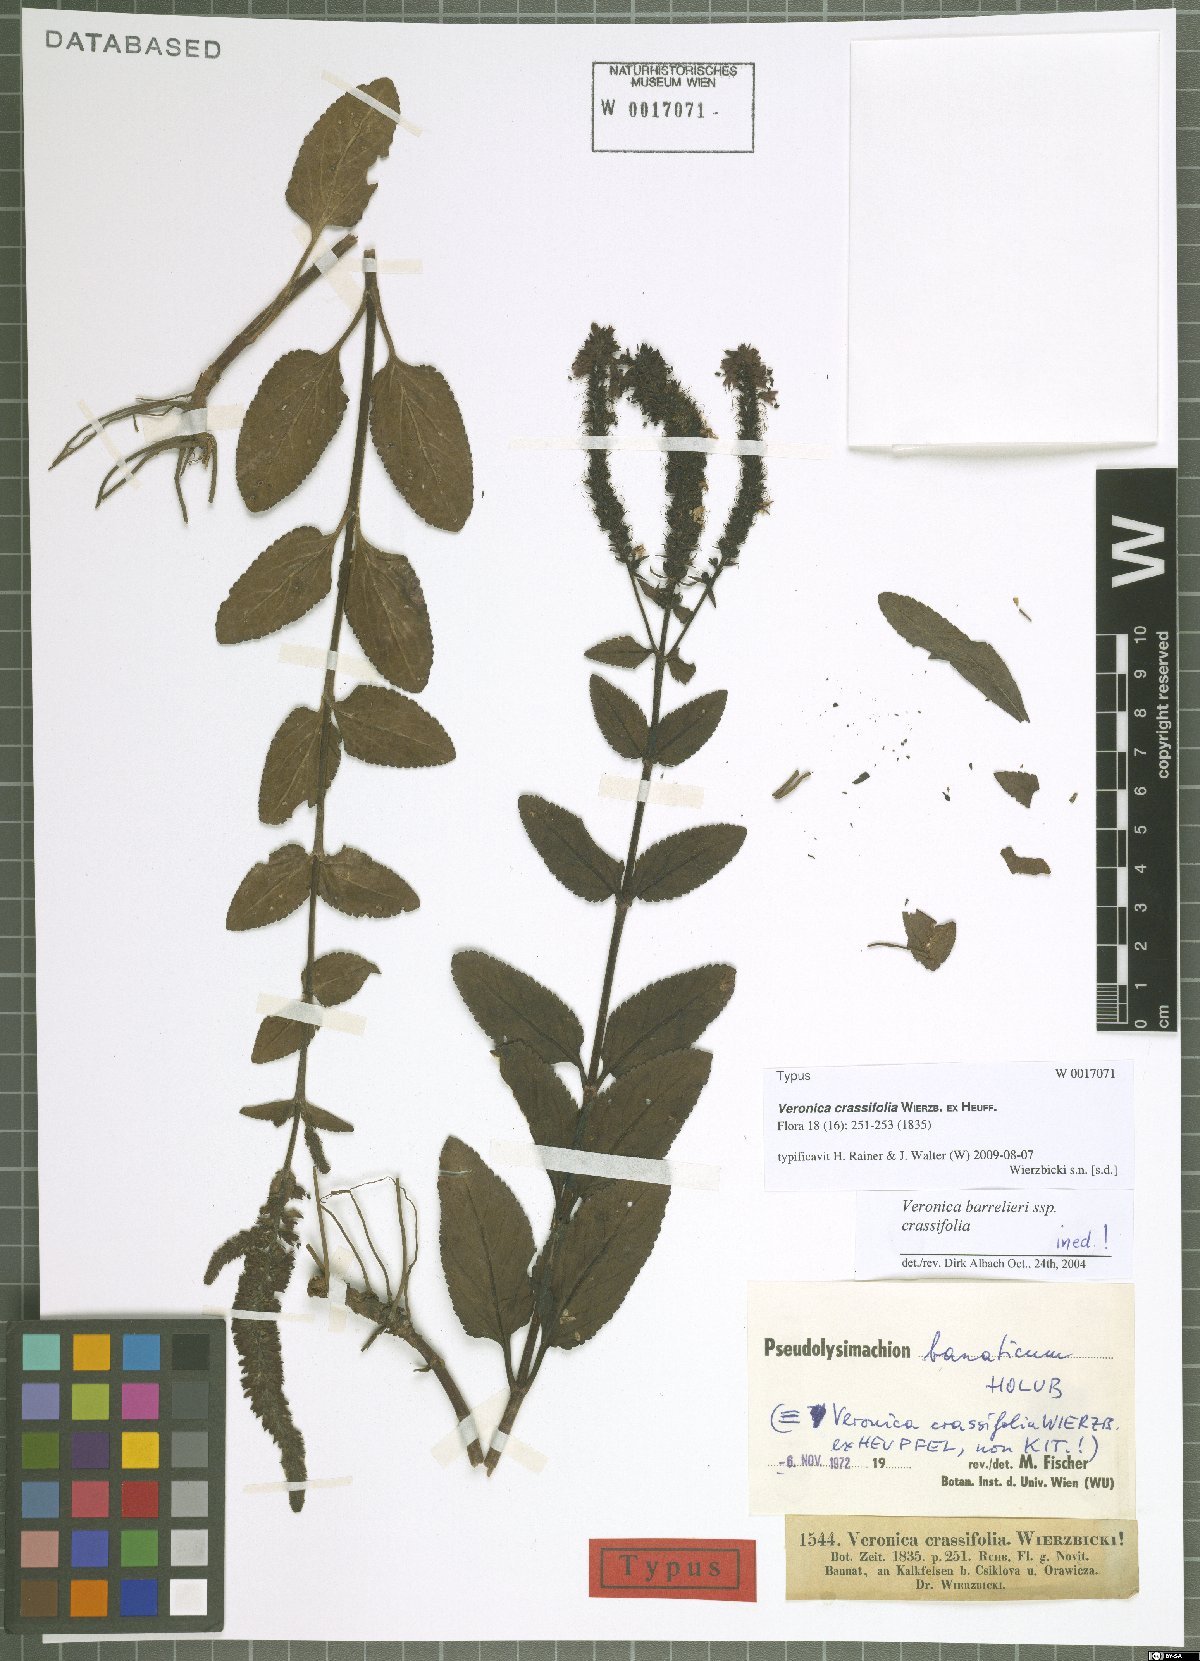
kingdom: Plantae
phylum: Tracheophyta
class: Magnoliopsida
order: Lamiales
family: Plantaginaceae
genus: Veronica
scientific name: Veronica orchidea
